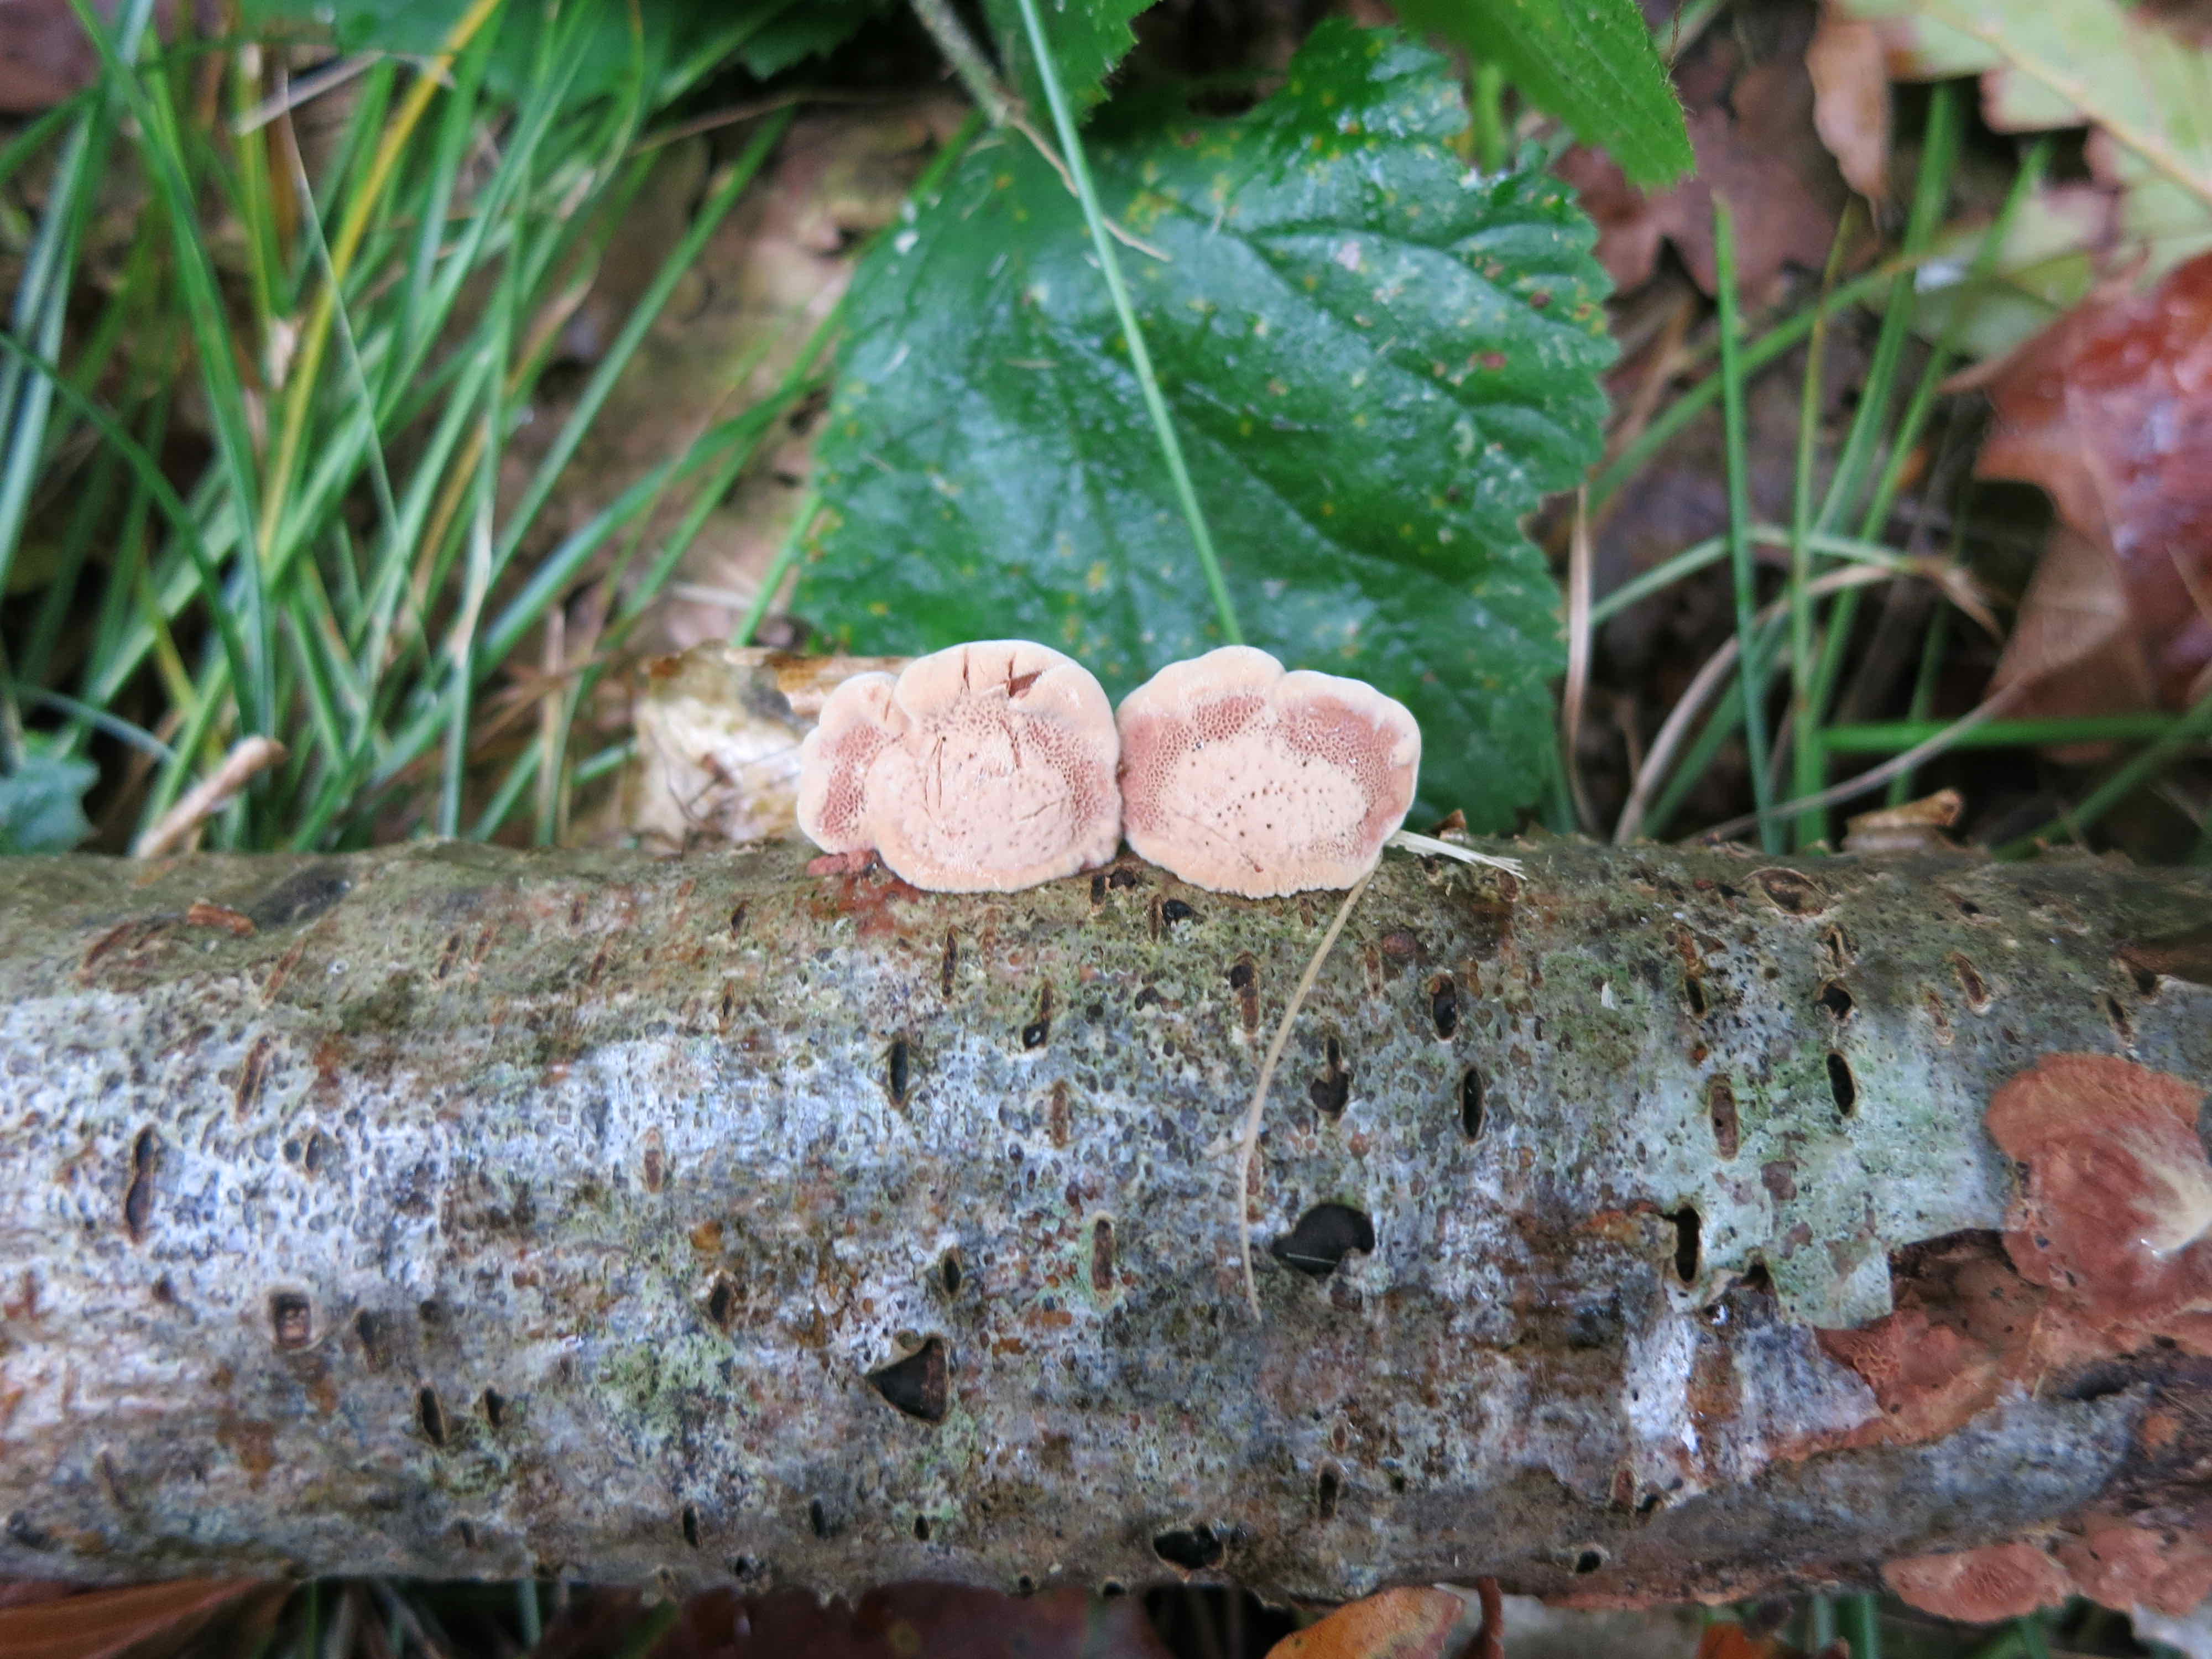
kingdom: Fungi
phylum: Basidiomycota
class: Agaricomycetes
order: Polyporales
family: Phanerochaetaceae
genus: Hapalopilus
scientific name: Hapalopilus rutilans
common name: rødlig okkerporesvamp
